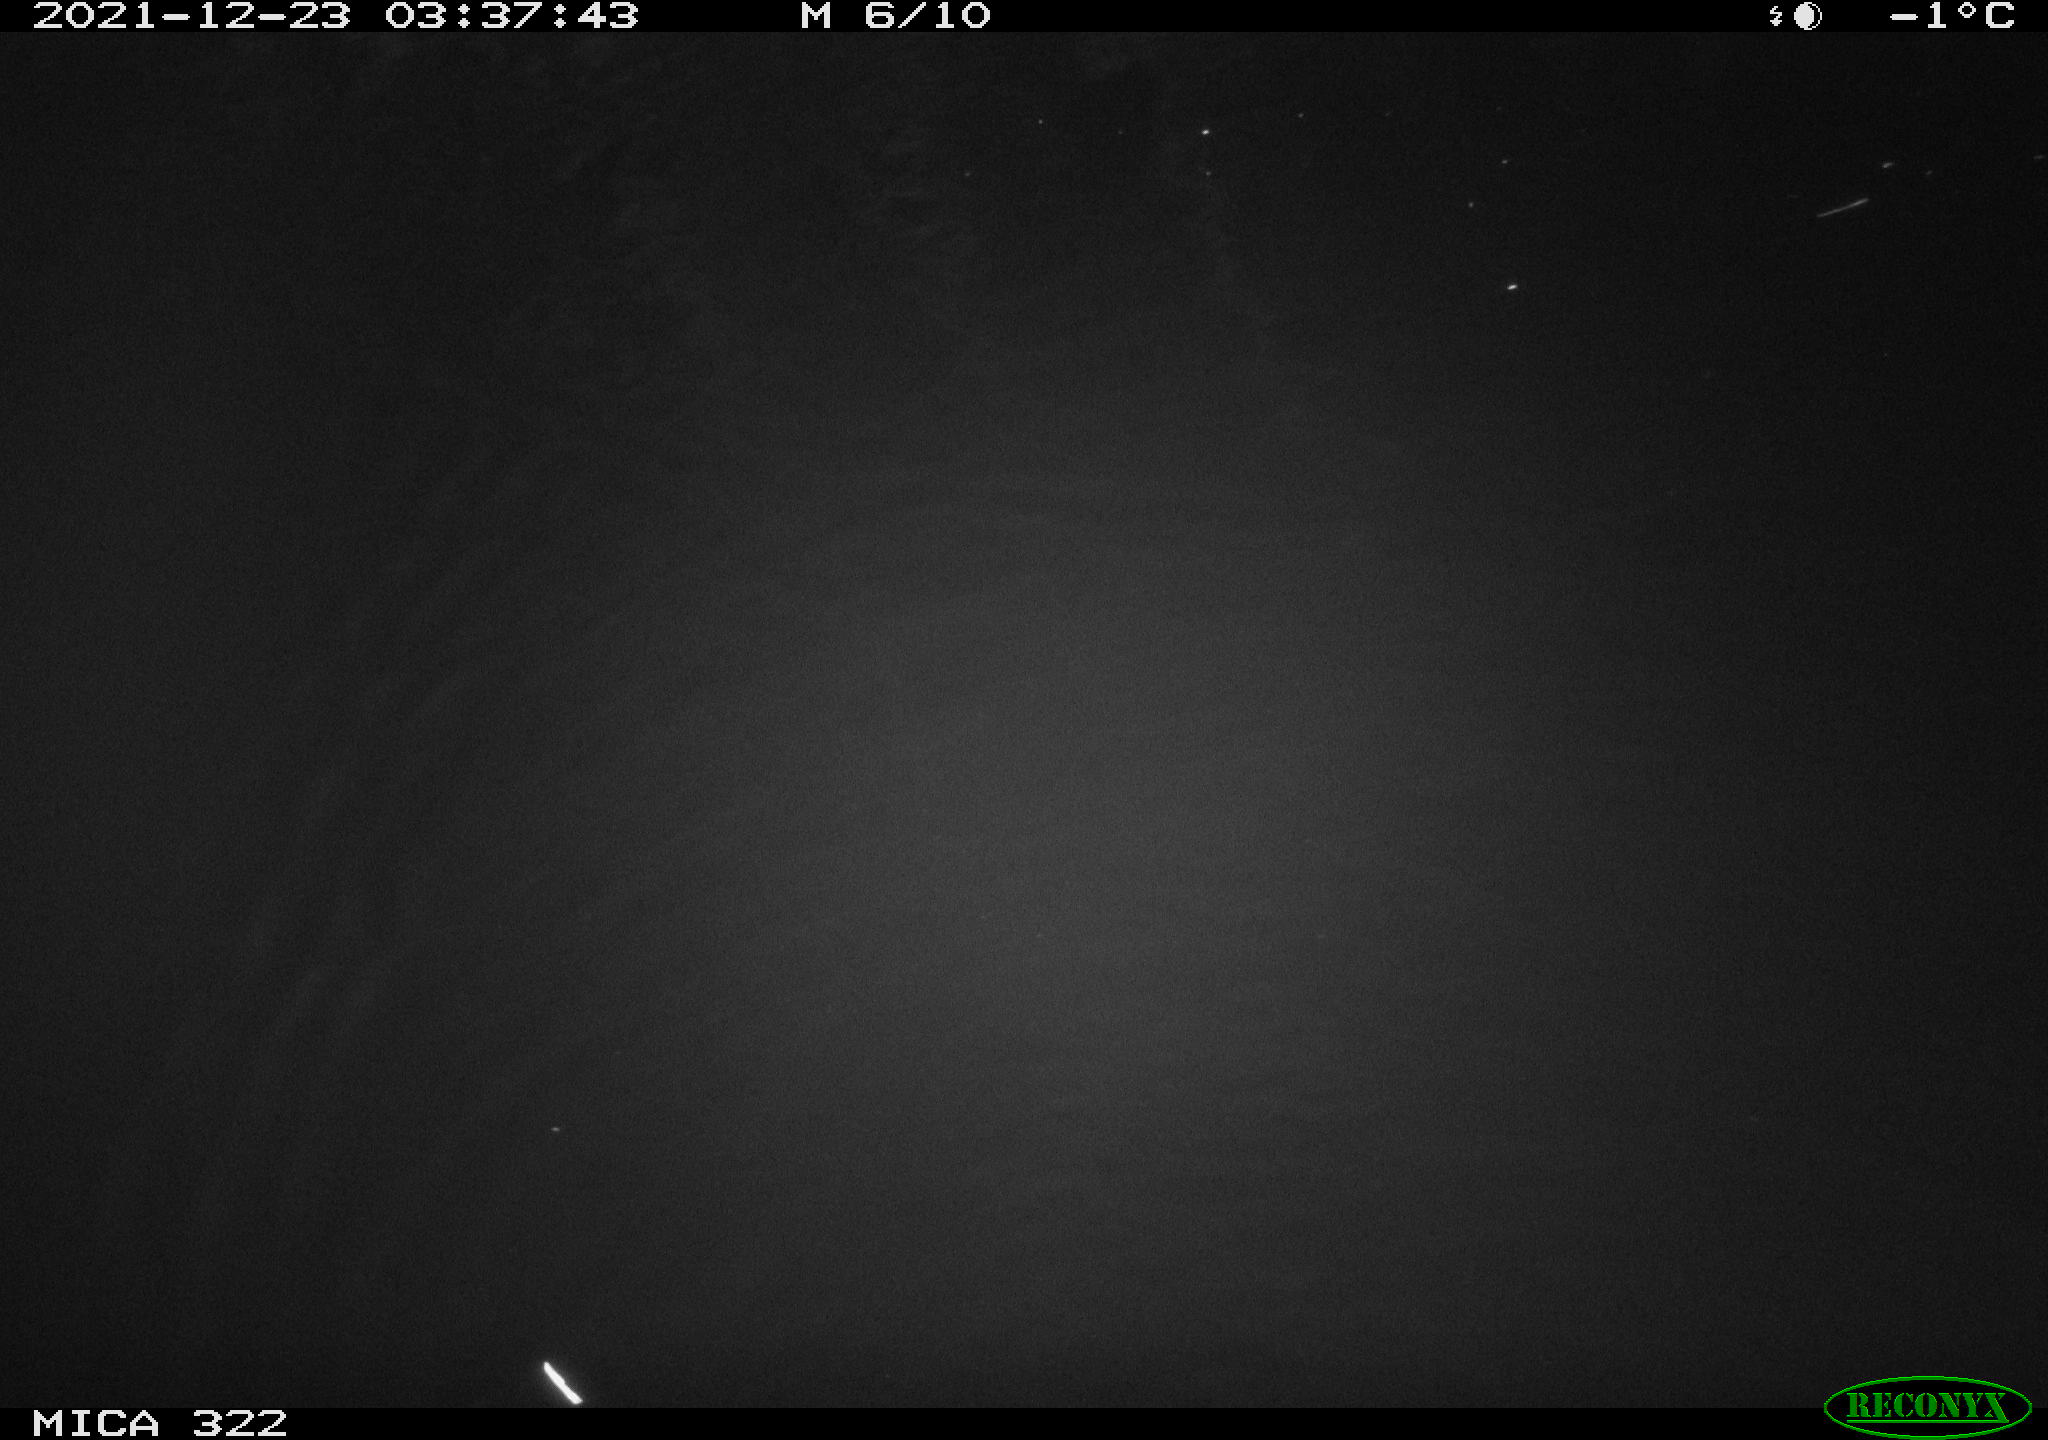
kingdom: Animalia
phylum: Chordata
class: Mammalia
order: Rodentia
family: Muridae
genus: Rattus
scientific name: Rattus norvegicus
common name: Brown rat
